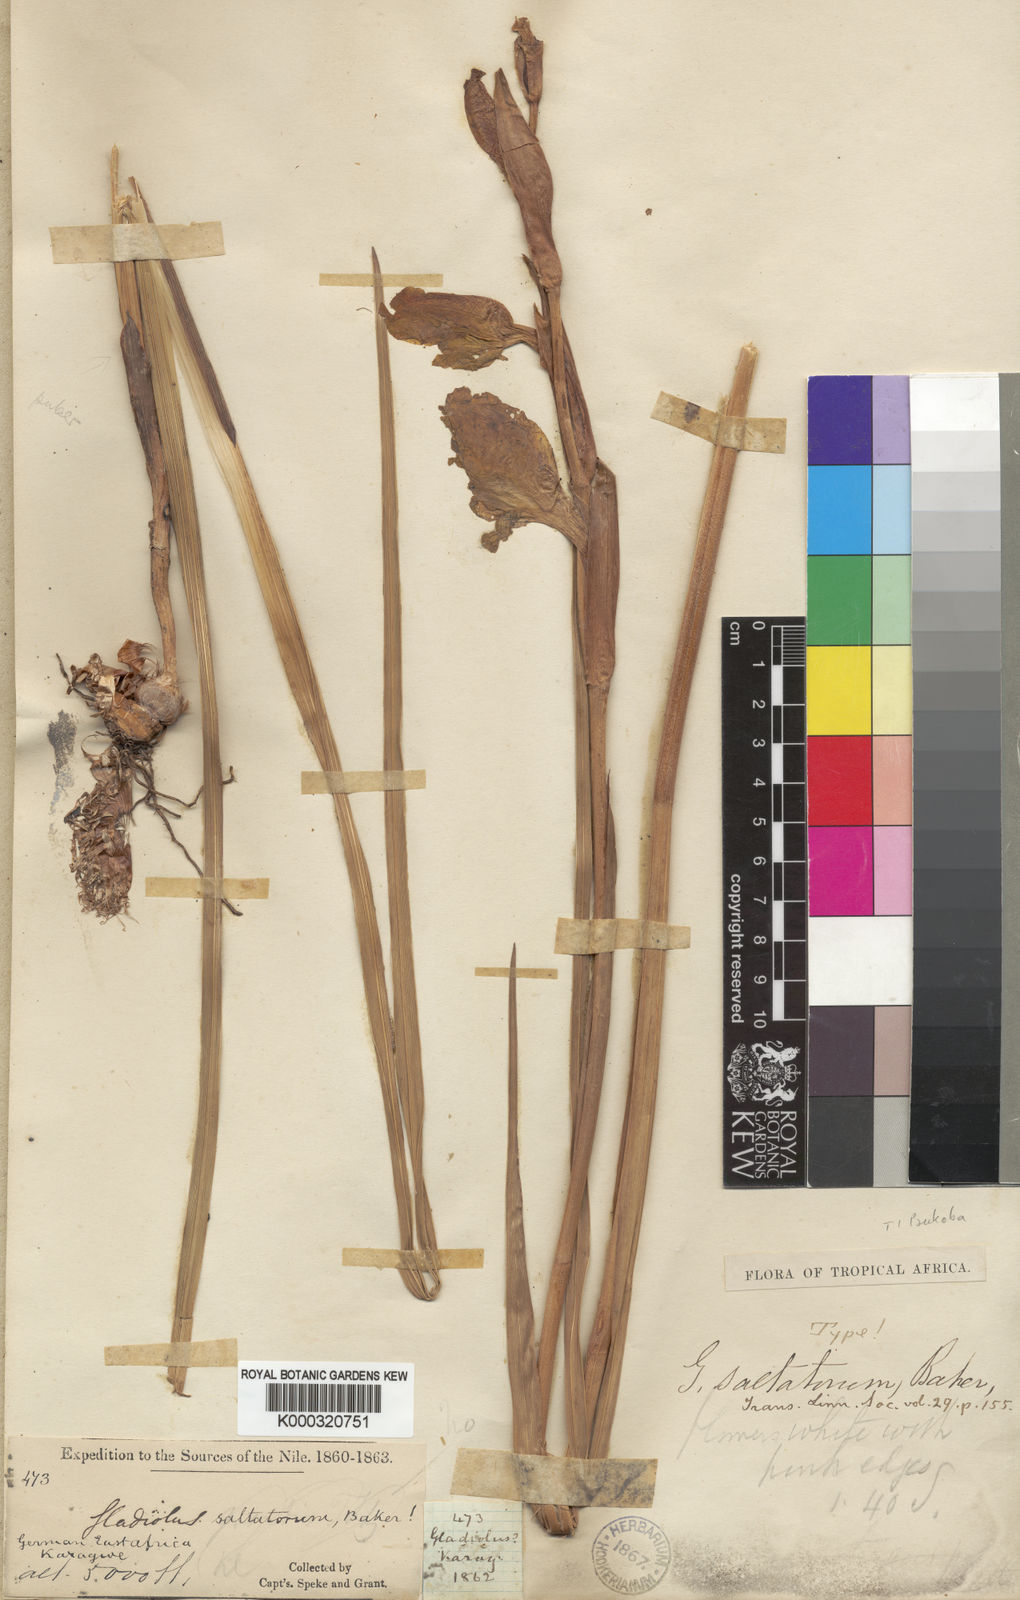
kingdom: Plantae
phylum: Tracheophyta
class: Liliopsida
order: Asparagales
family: Iridaceae
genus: Gladiolus
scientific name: Gladiolus dalenii
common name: Cornflag
